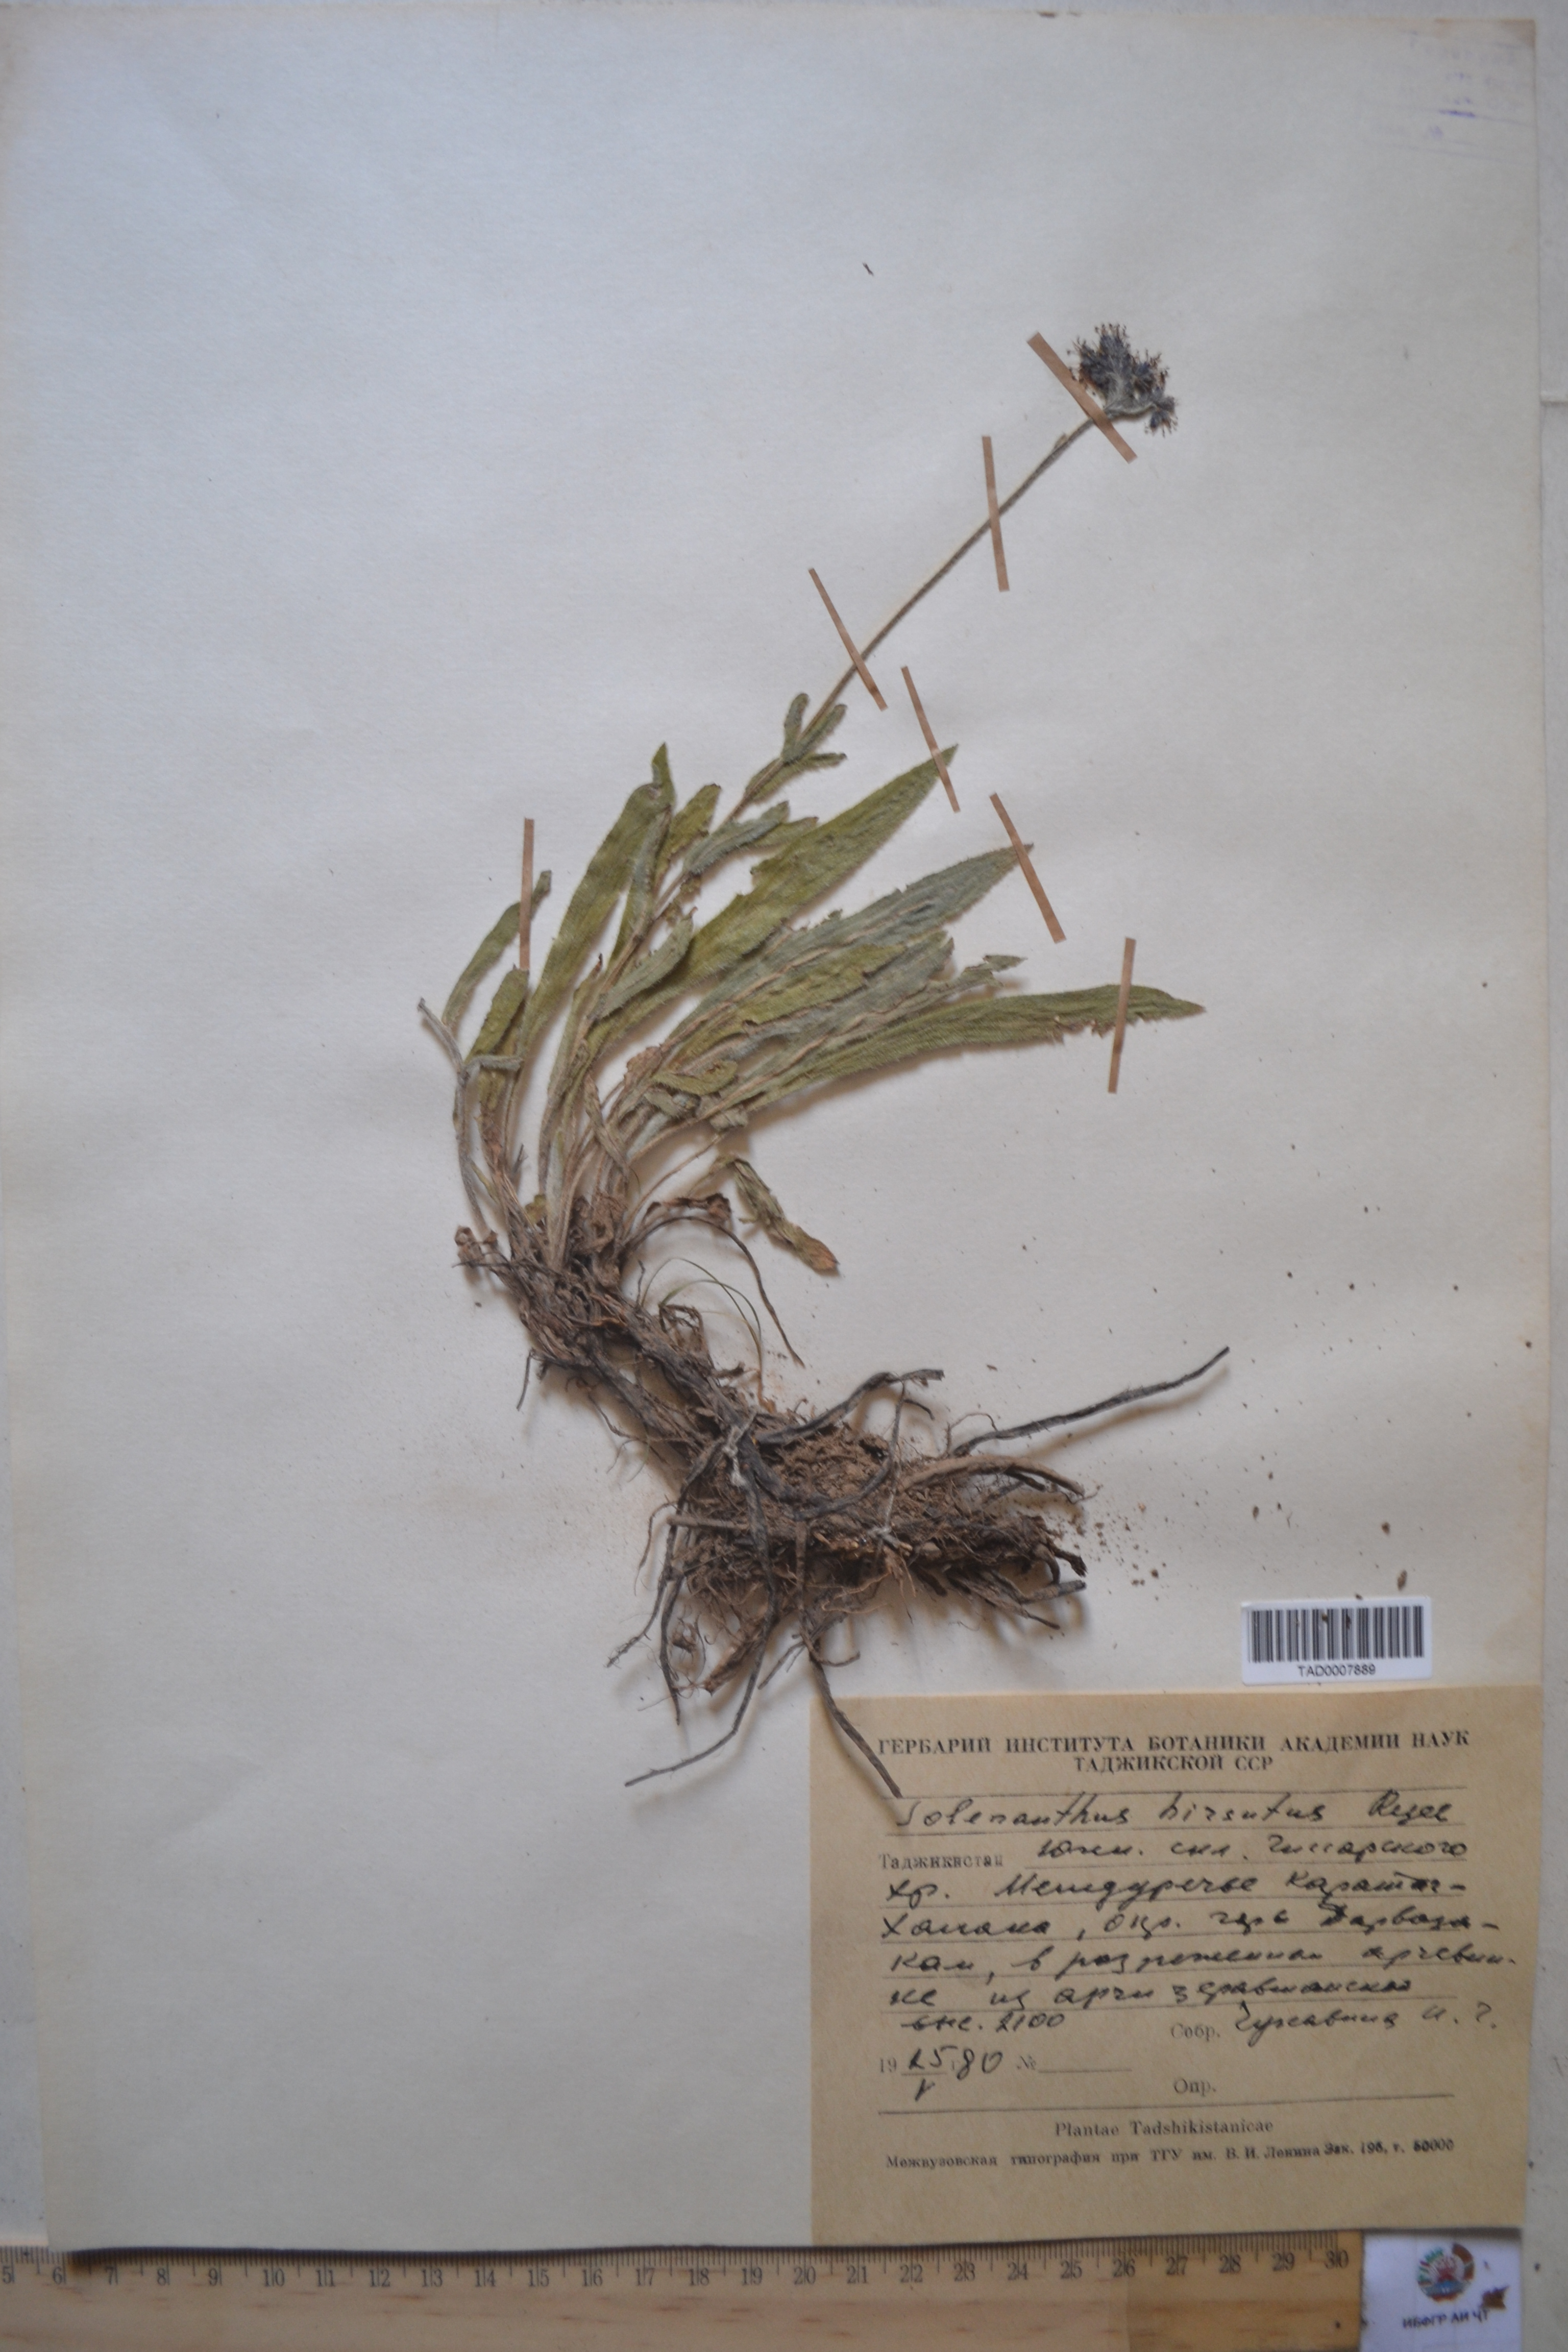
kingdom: Plantae
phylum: Tracheophyta
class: Magnoliopsida
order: Boraginales
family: Boraginaceae
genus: Solenanthus
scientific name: Solenanthus hirsutus
